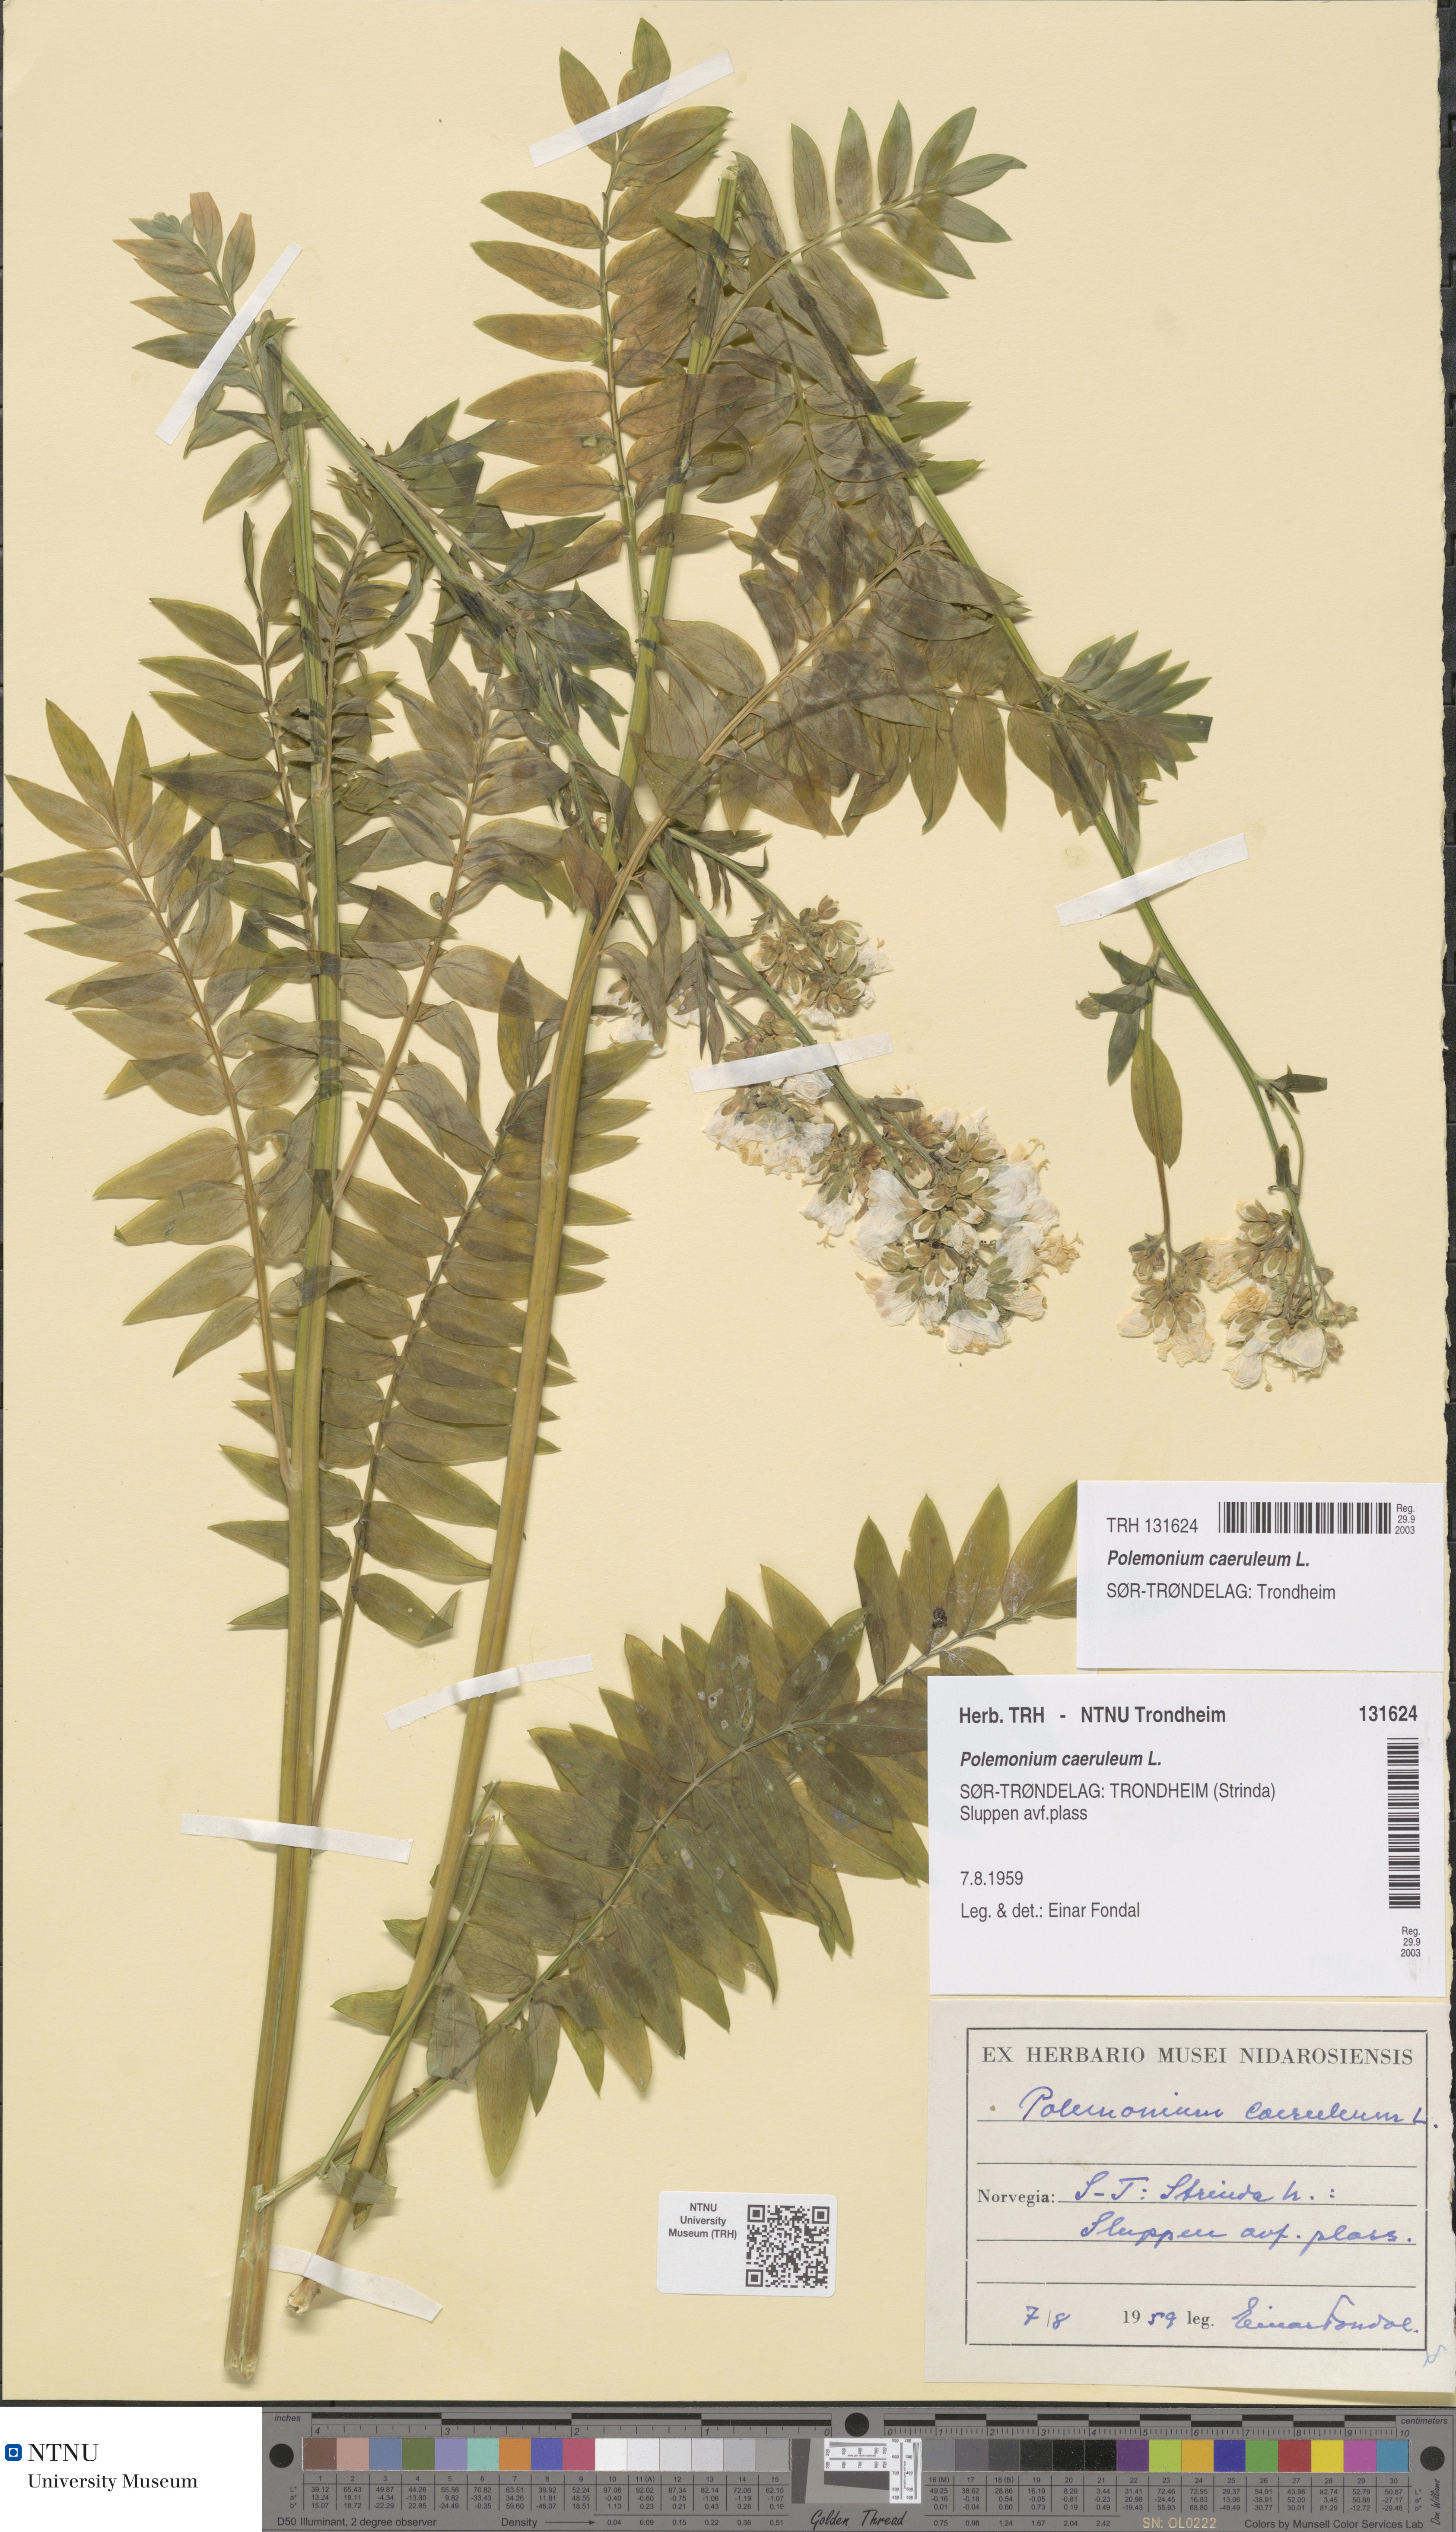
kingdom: Plantae
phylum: Tracheophyta
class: Magnoliopsida
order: Ericales
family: Polemoniaceae
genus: Polemonium
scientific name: Polemonium caeruleum
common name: Jacob's-ladder
